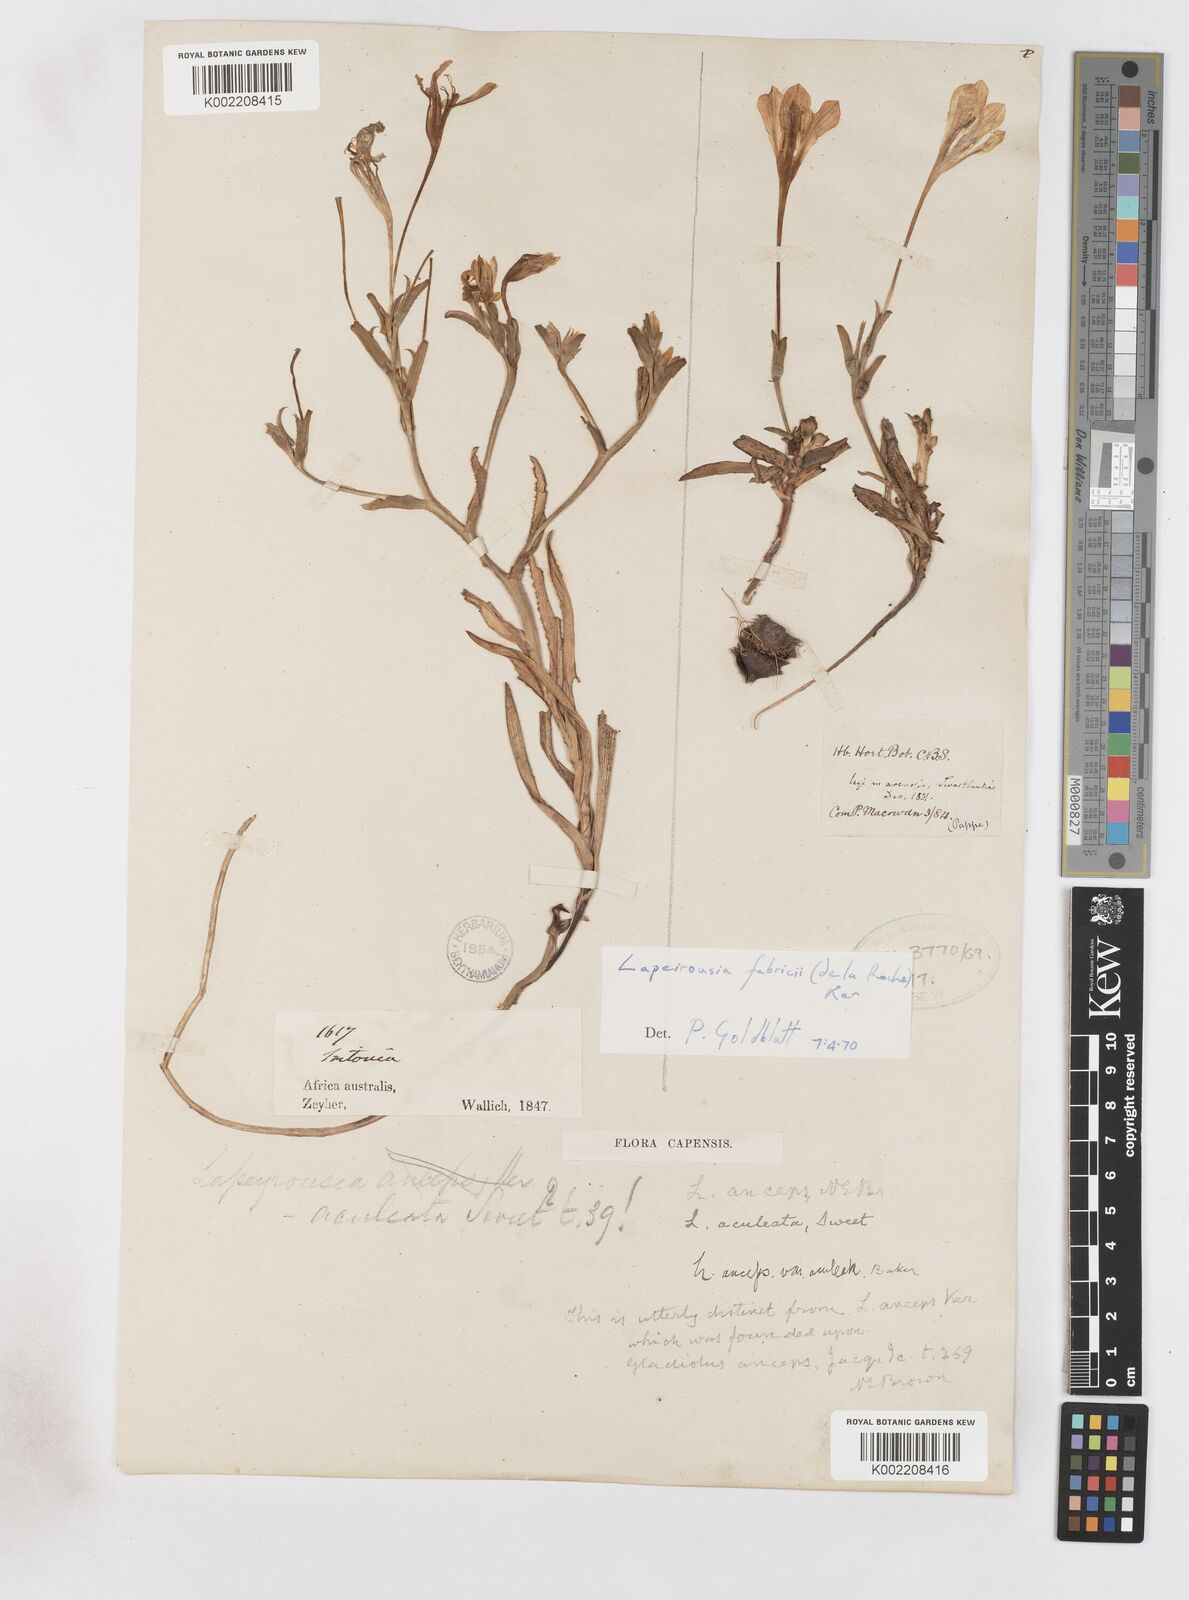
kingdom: Plantae
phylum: Tracheophyta
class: Liliopsida
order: Asparagales
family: Iridaceae
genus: Lapeirousia
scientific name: Lapeirousia fabricii
